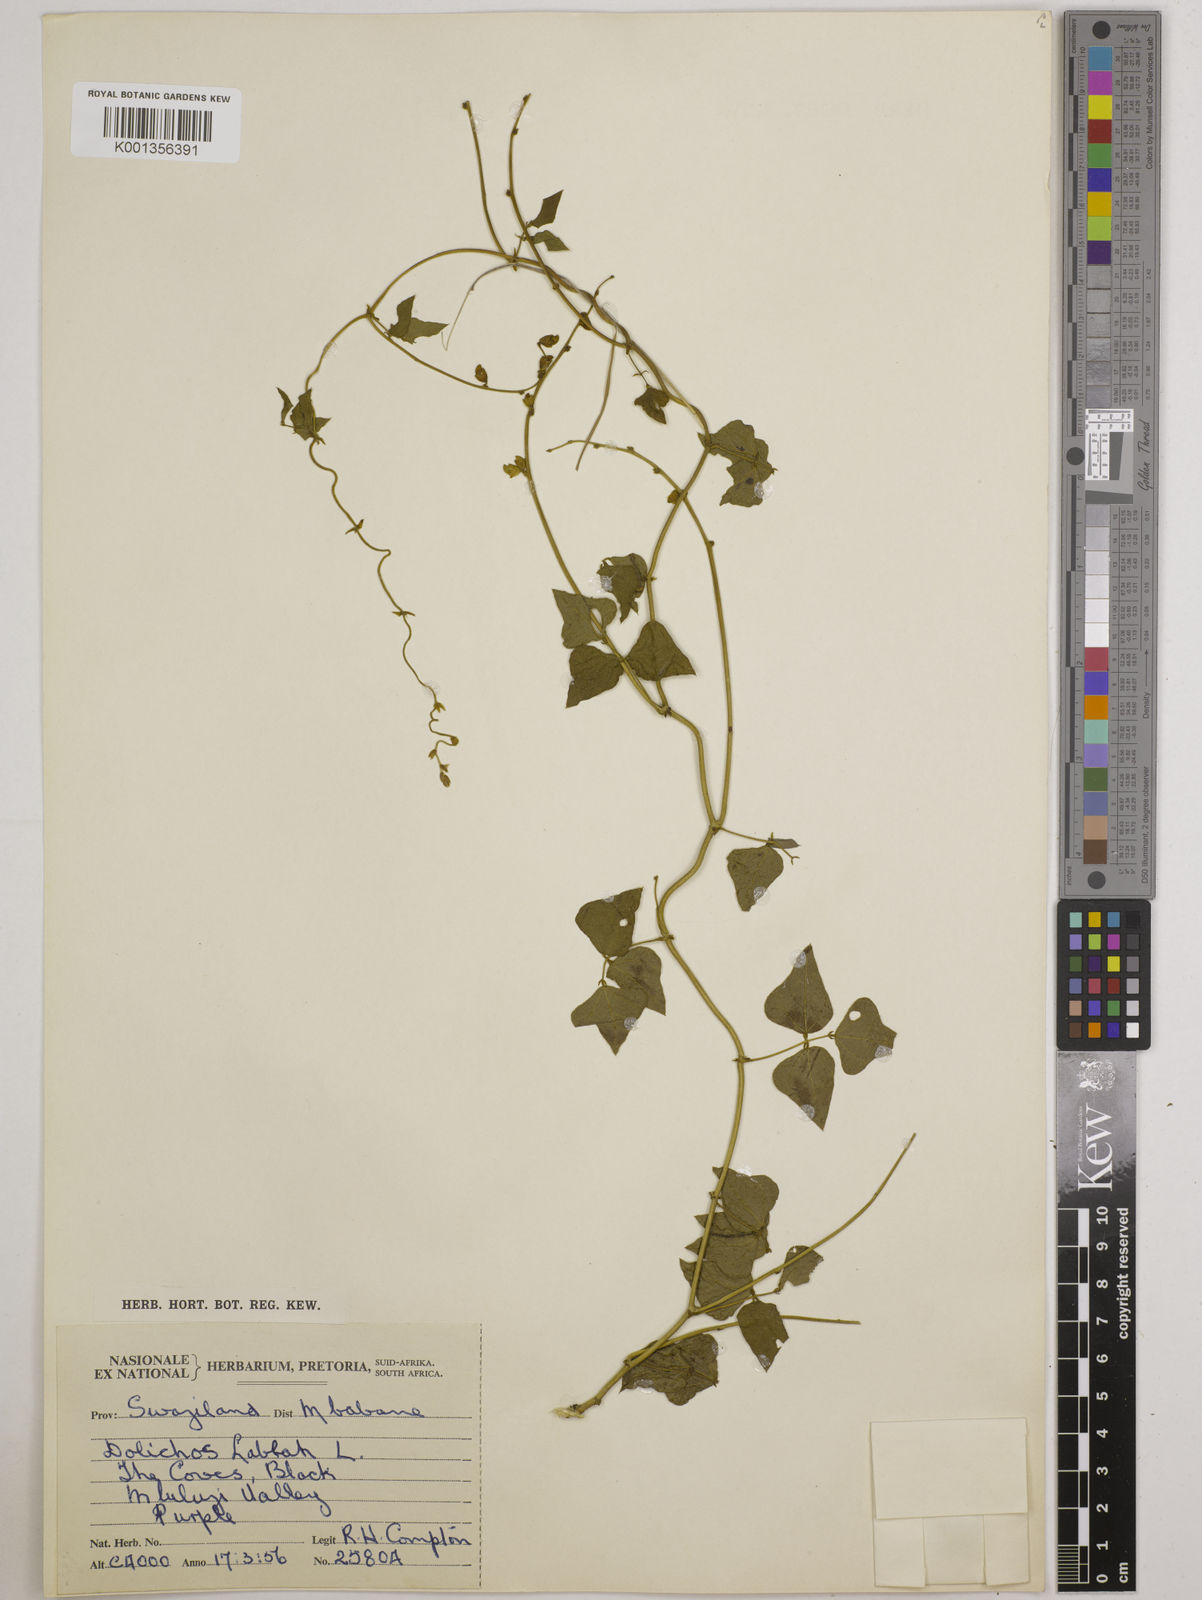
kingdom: Plantae
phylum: Tracheophyta
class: Magnoliopsida
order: Fabales
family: Fabaceae
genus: Lablab
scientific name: Lablab purpureus
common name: Lablab-bean
